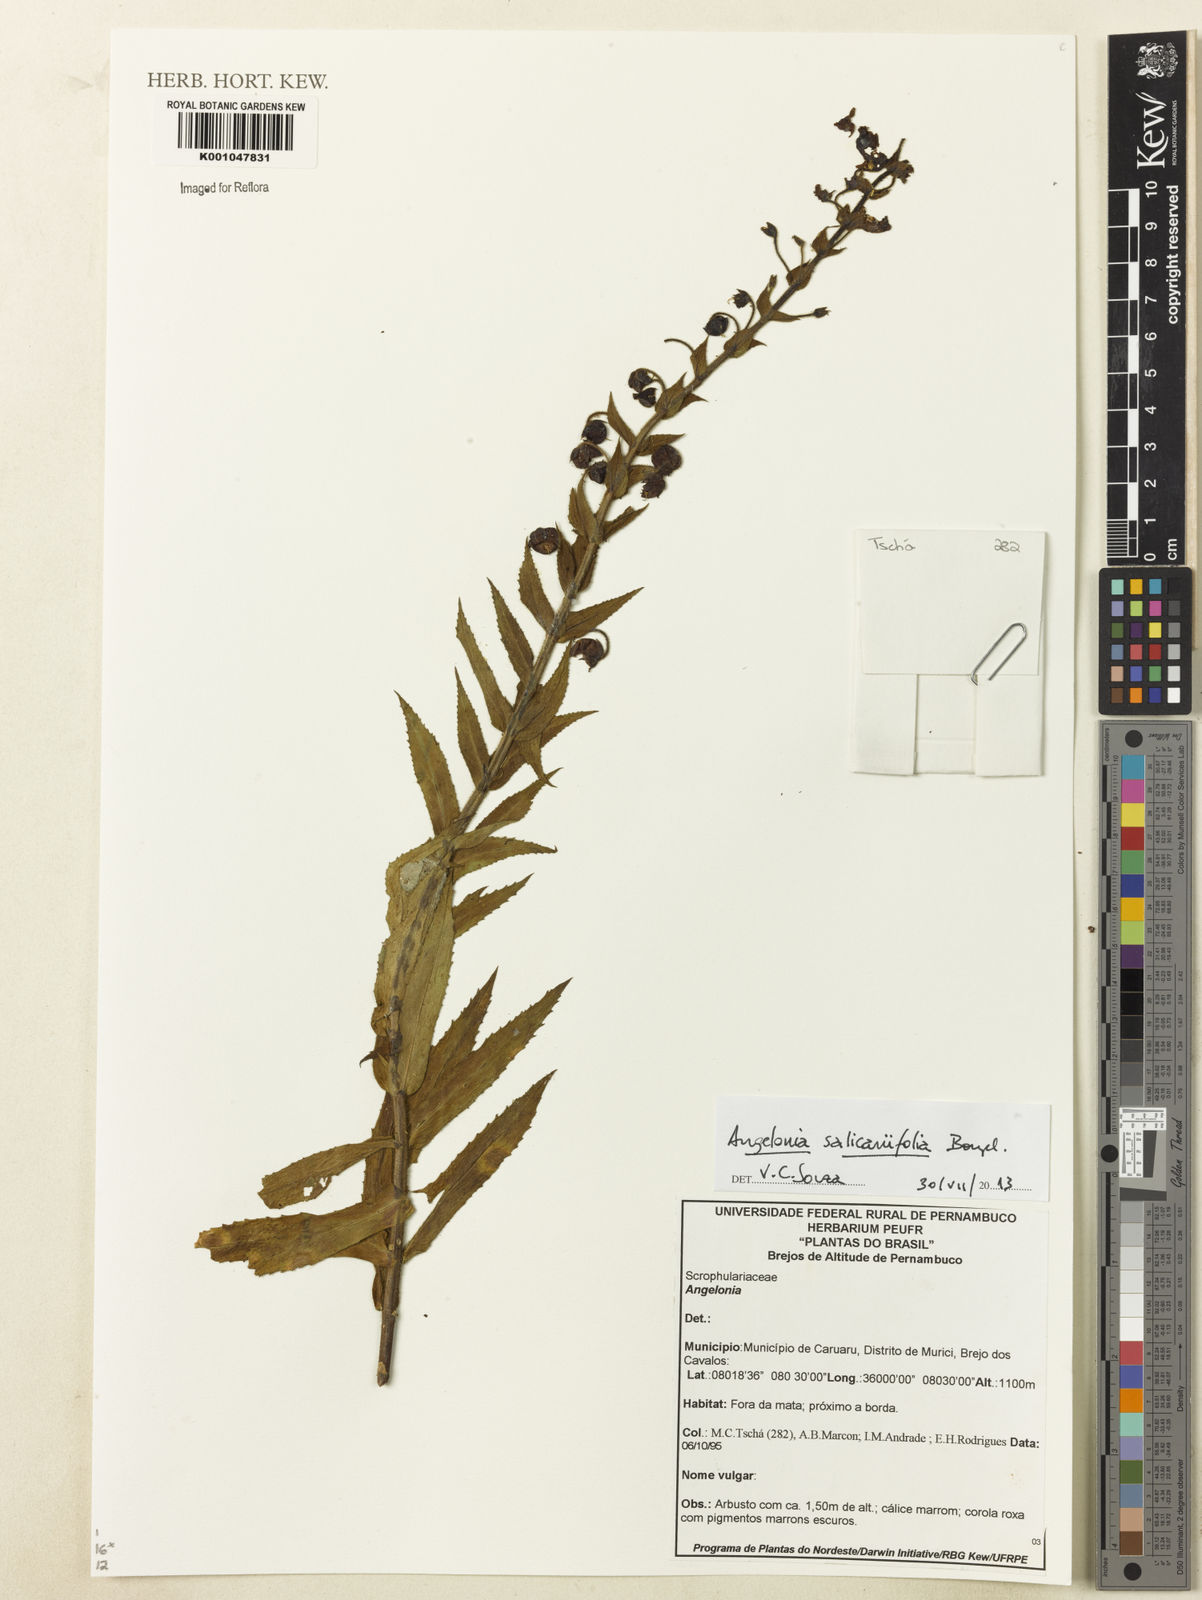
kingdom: Plantae
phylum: Tracheophyta
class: Magnoliopsida
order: Lamiales
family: Plantaginaceae
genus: Angelonia
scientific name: Angelonia salicariifolia
